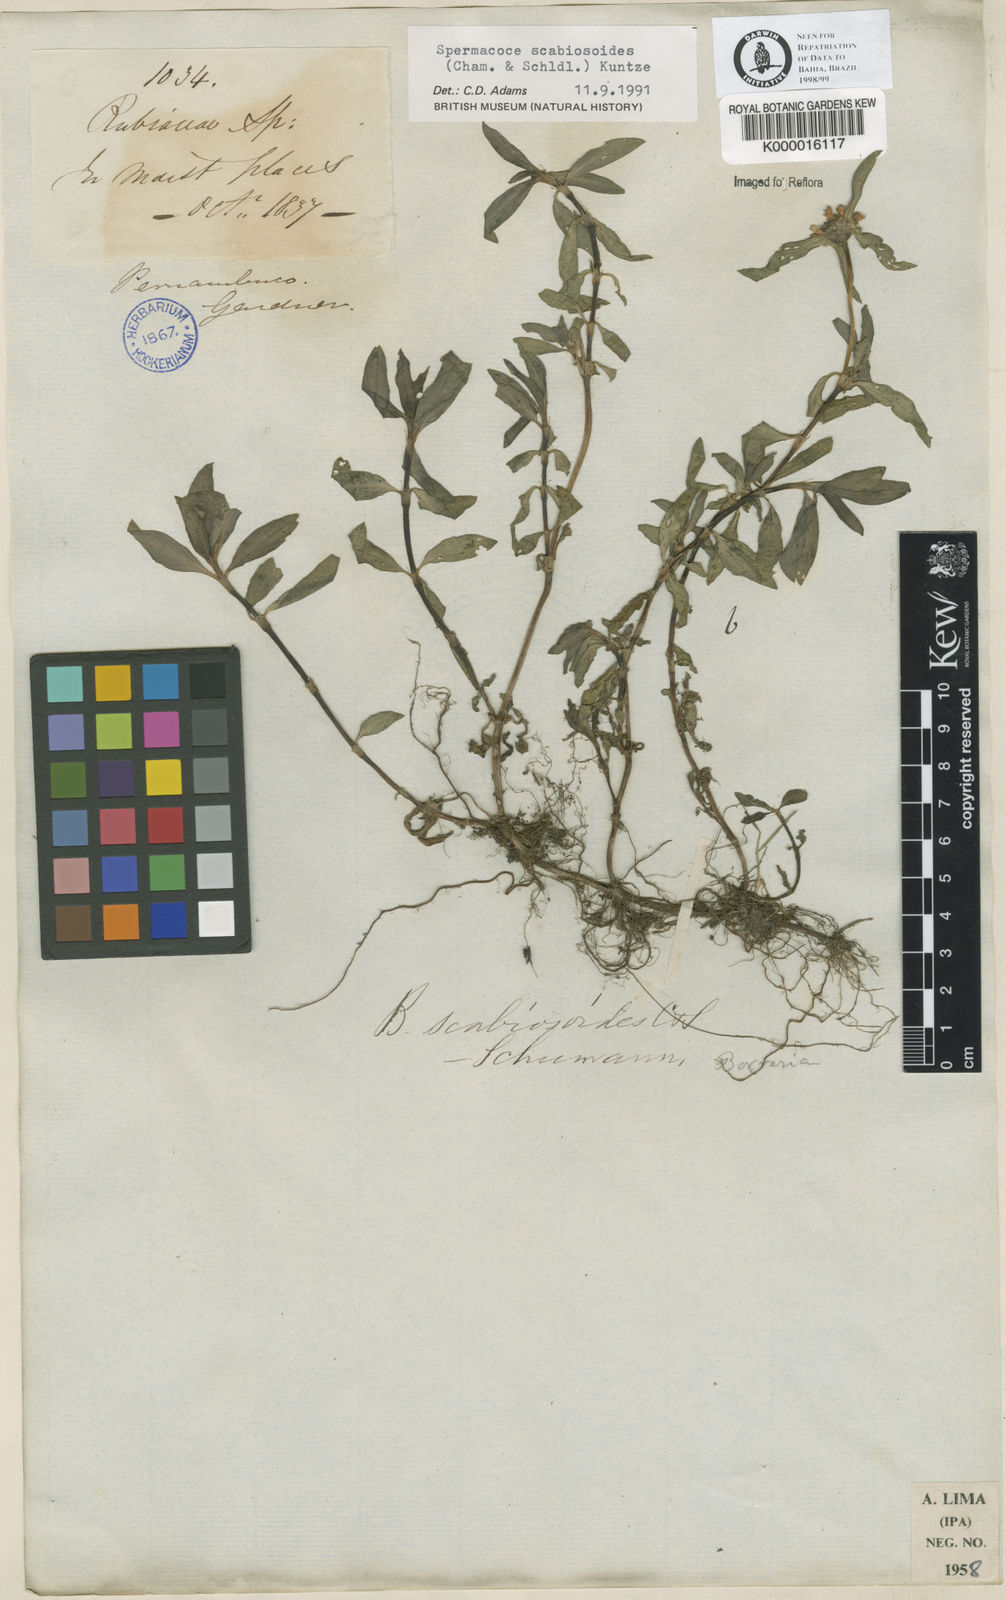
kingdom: Plantae
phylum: Tracheophyta
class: Magnoliopsida
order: Gentianales
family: Rubiaceae
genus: Spermacoce
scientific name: Spermacoce scabiosoides
